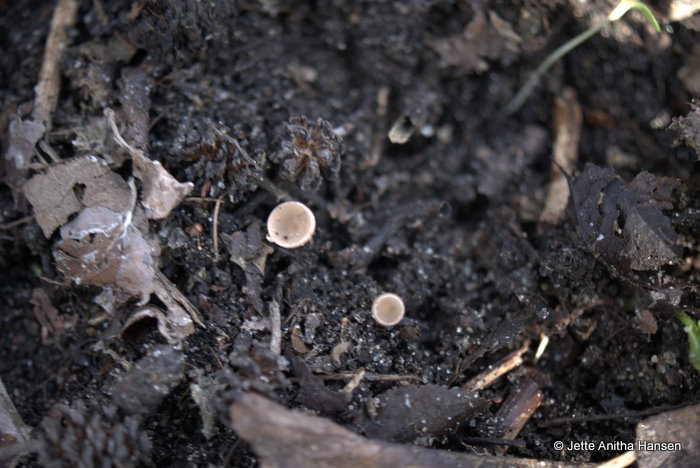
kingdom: Fungi
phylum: Ascomycota
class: Leotiomycetes
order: Helotiales
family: Sclerotiniaceae
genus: Ciboria
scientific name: Ciboria amentacea
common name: ellerakle-knoldskive
